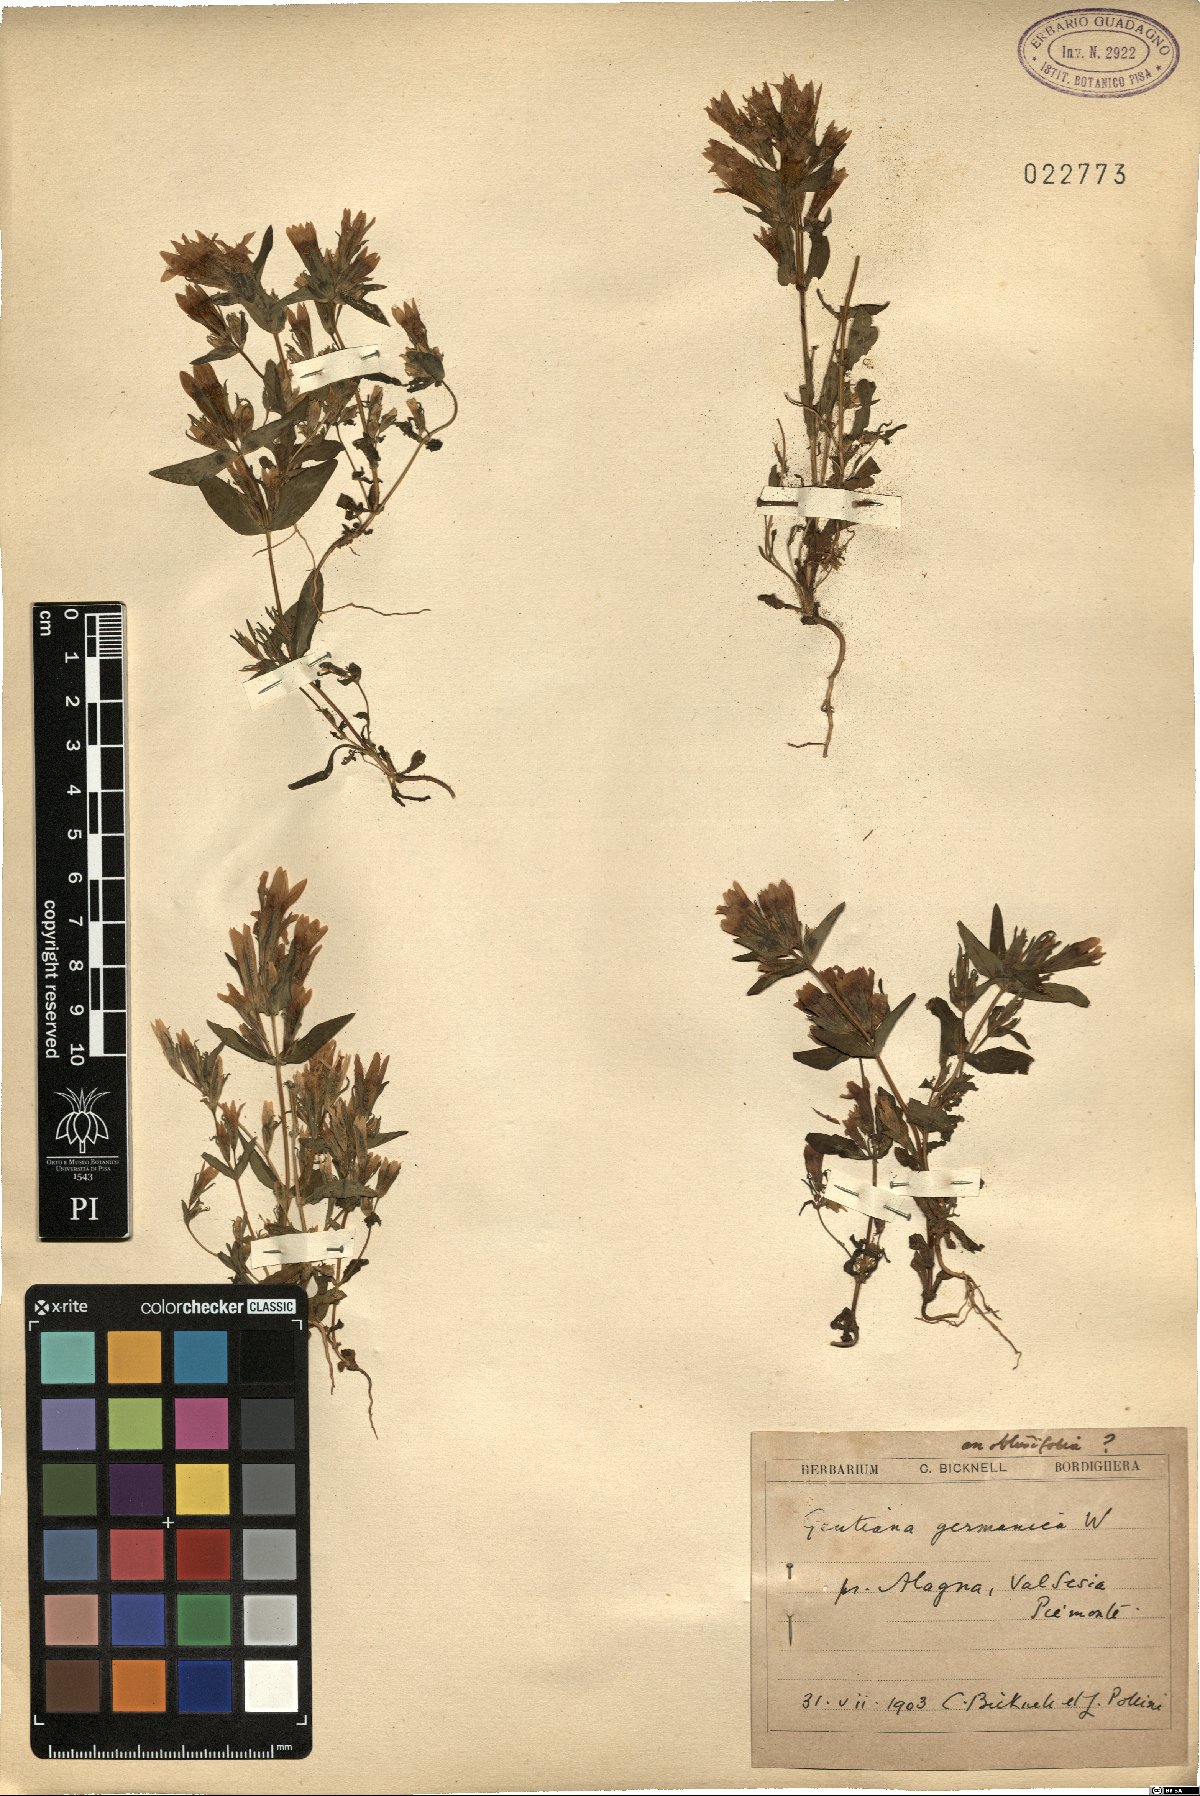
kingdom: Plantae
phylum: Tracheophyta
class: Magnoliopsida
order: Gentianales
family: Gentianaceae
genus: Gentianella
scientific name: Gentianella germanica
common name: Chiltern-gentian
